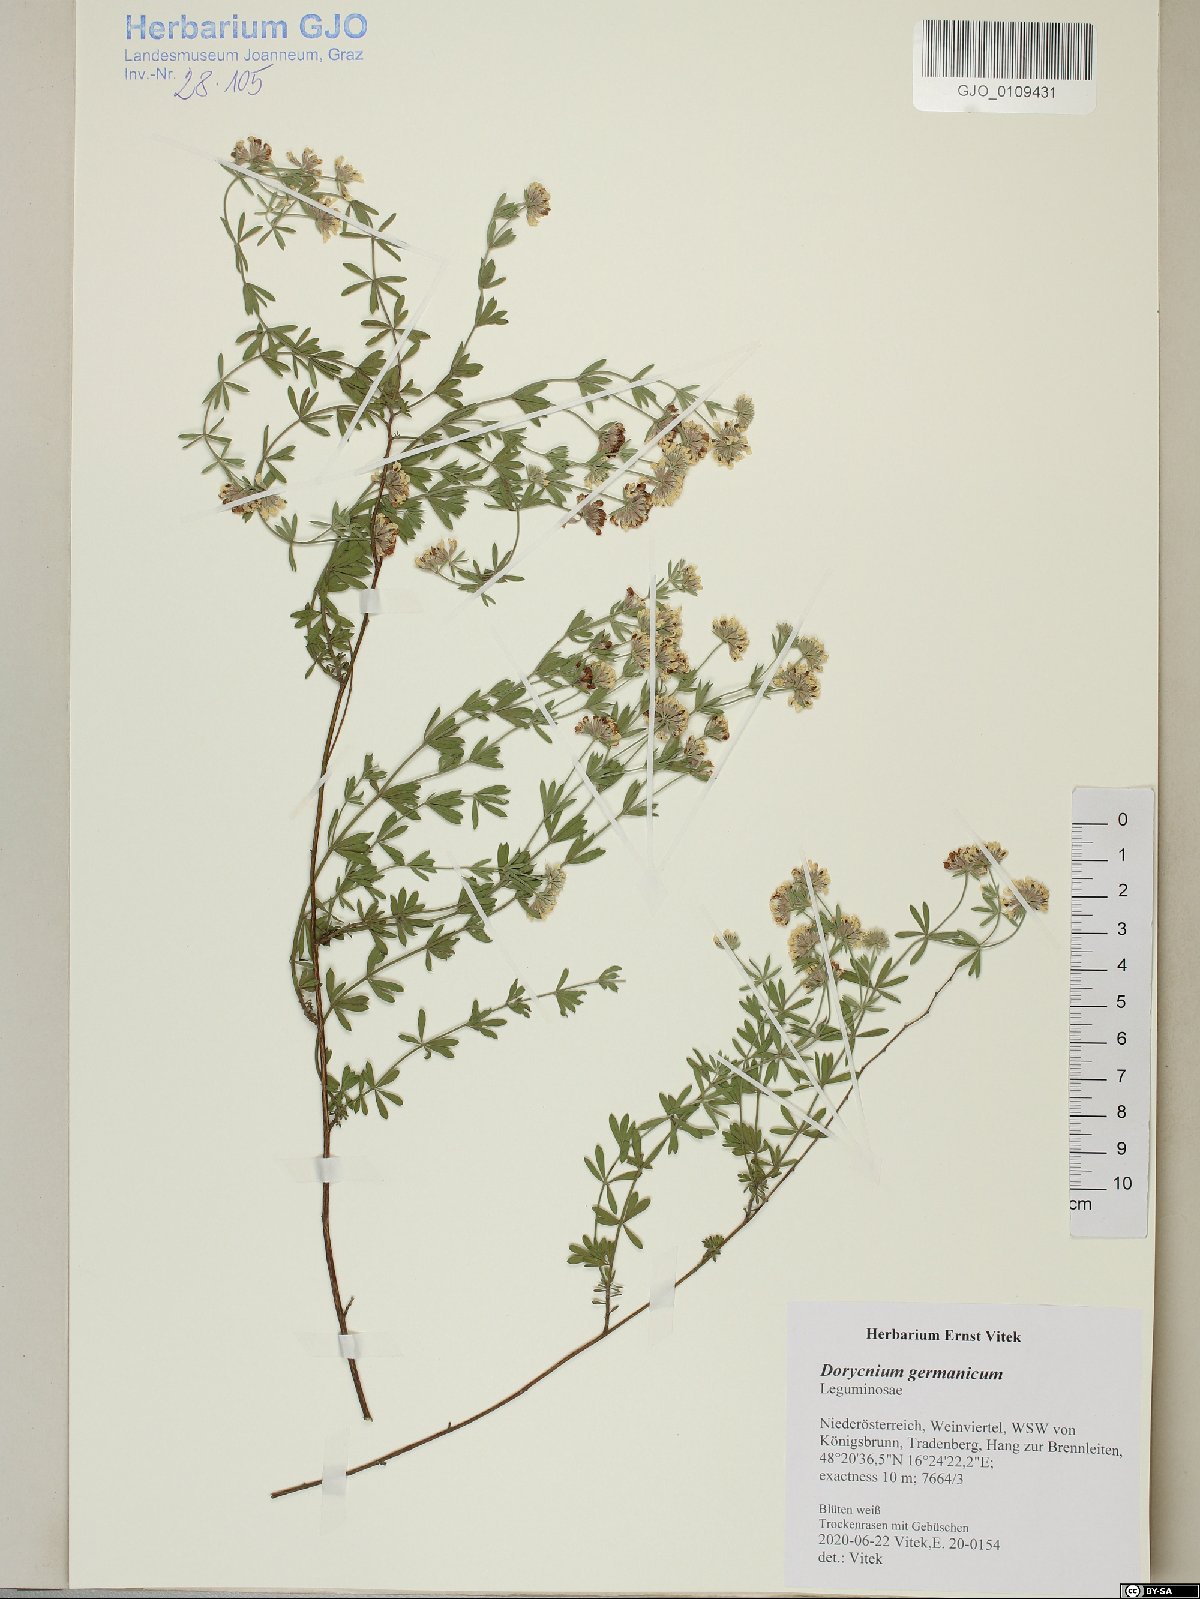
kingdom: Plantae
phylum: Tracheophyta
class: Magnoliopsida
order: Fabales
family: Fabaceae
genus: Lotus
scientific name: Lotus germanicus
